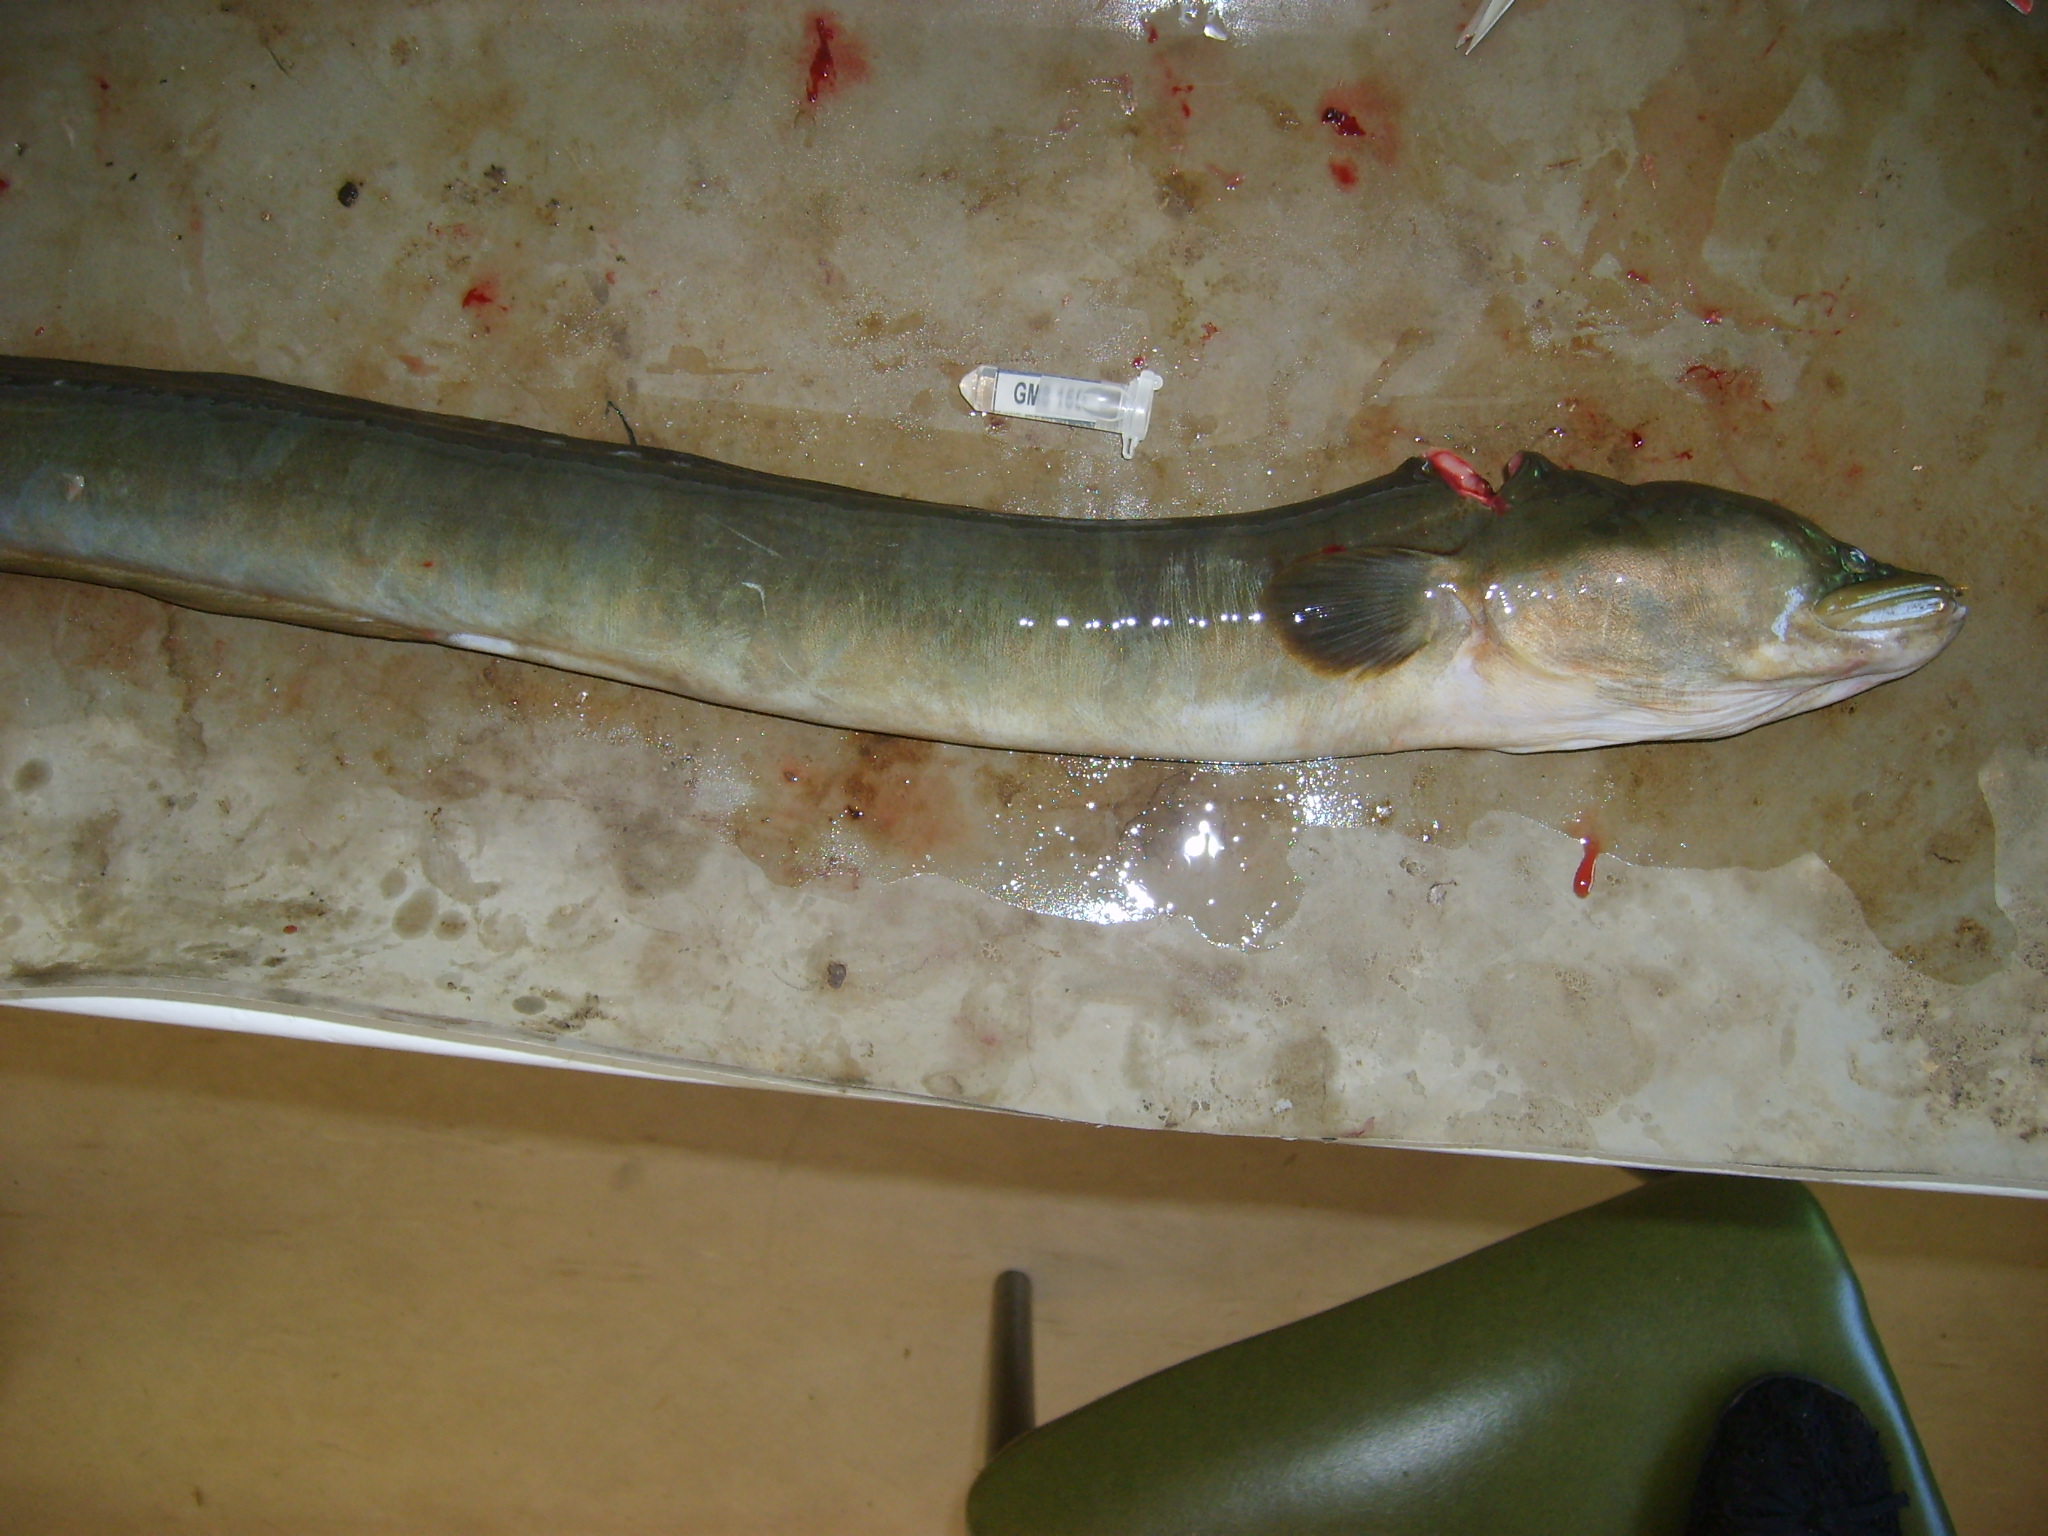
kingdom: Animalia
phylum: Chordata
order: Anguilliformes
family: Anguillidae
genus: Anguilla
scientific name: Anguilla mossambica
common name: African longfin eel
